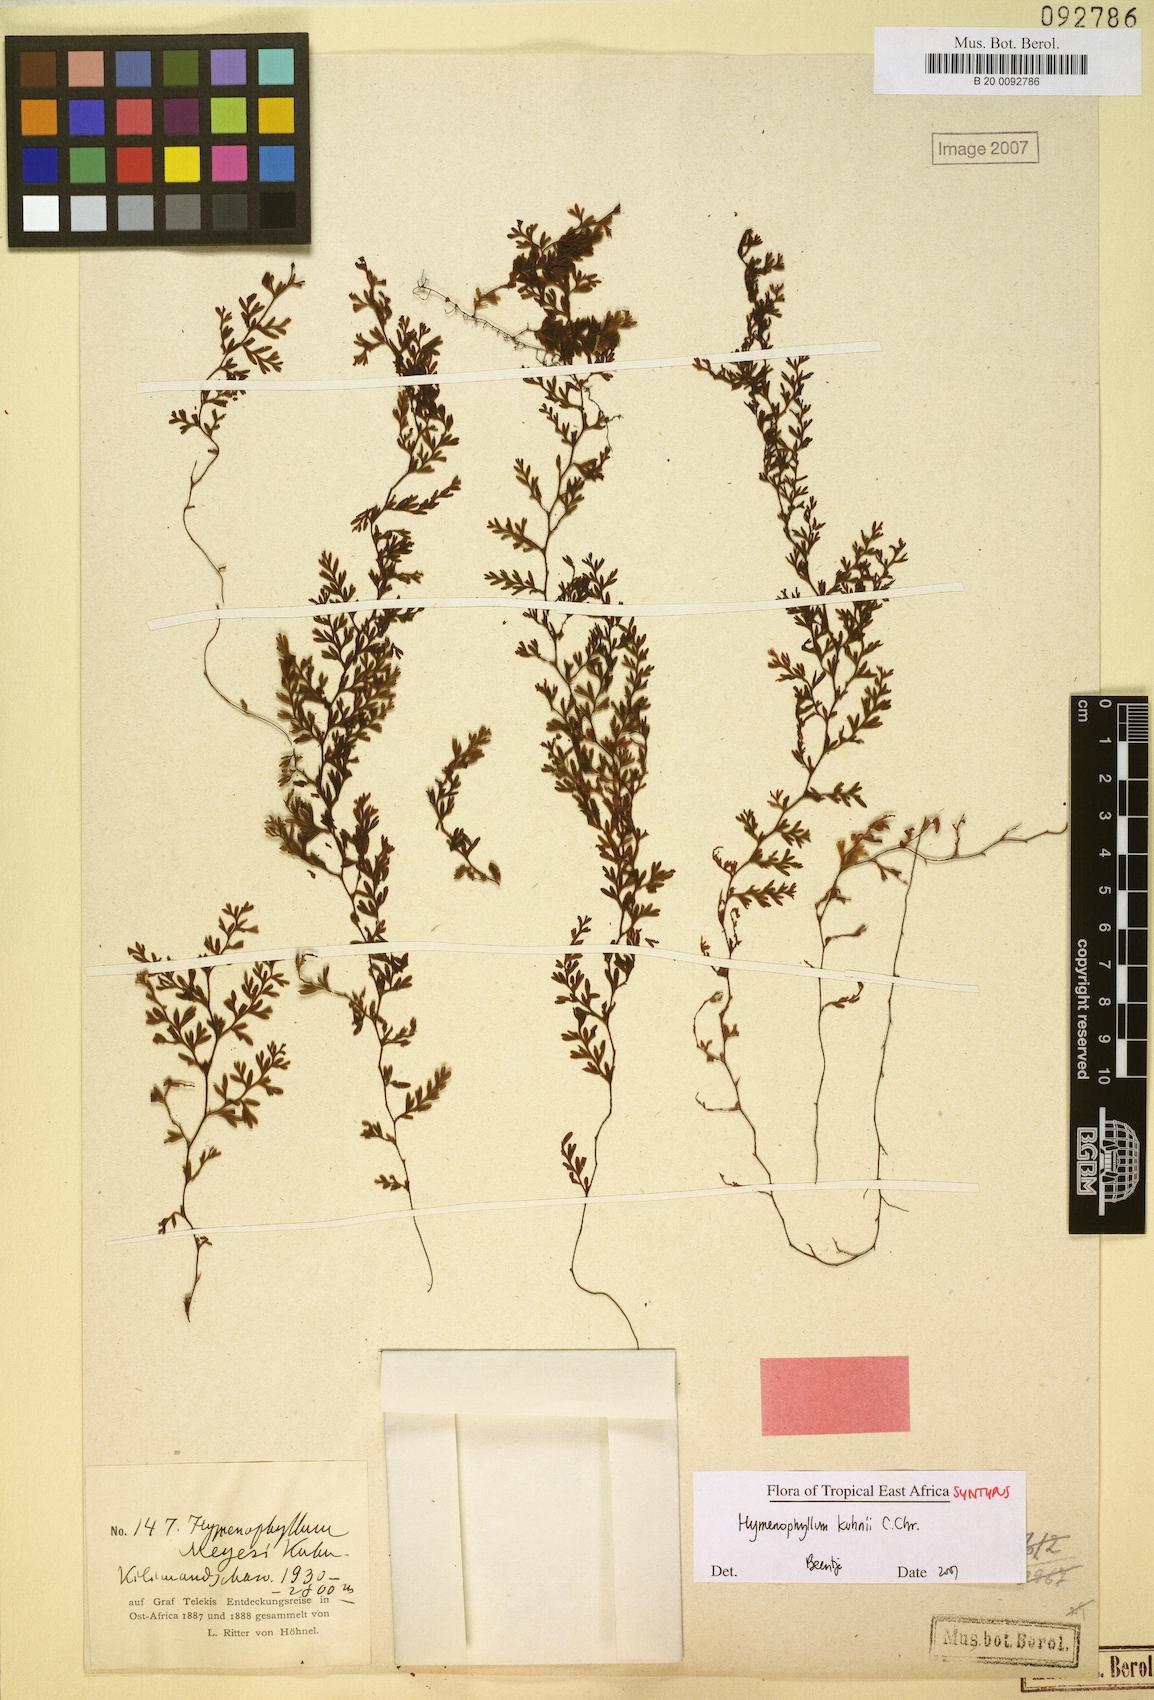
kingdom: Plantae
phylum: Tracheophyta
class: Polypodiopsida
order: Hymenophyllales
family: Hymenophyllaceae
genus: Hymenophyllum
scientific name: Hymenophyllum kuhnii
